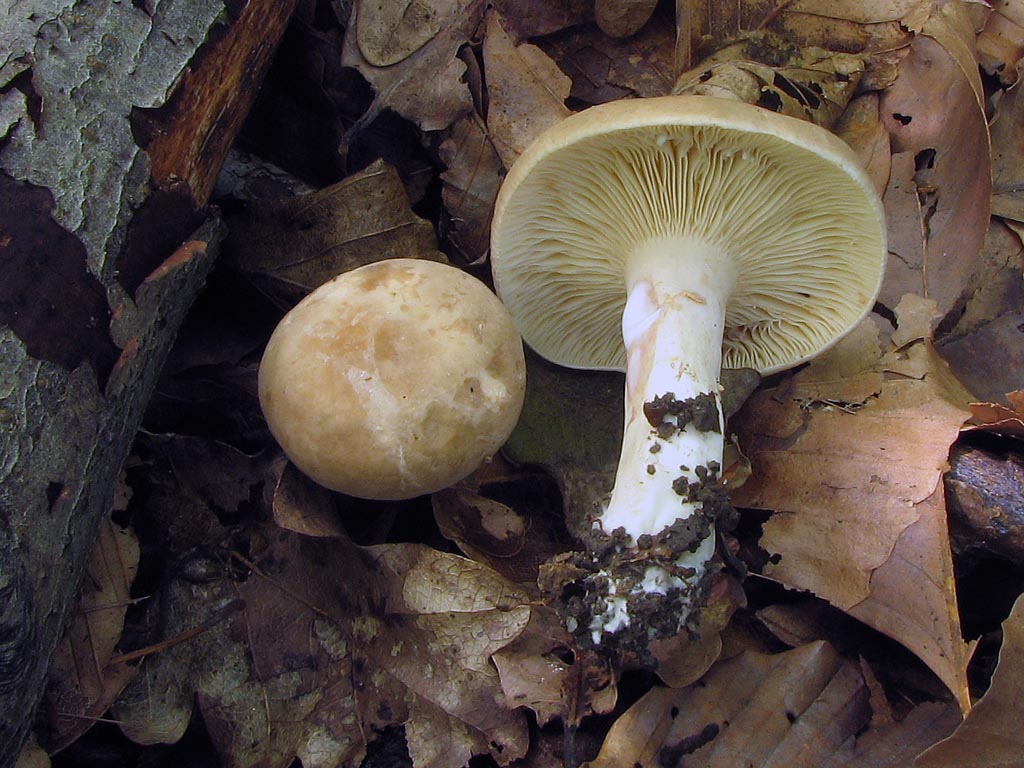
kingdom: Fungi
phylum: Basidiomycota
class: Agaricomycetes
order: Russulales
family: Russulaceae
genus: Lactarius
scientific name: Lactarius azonites
